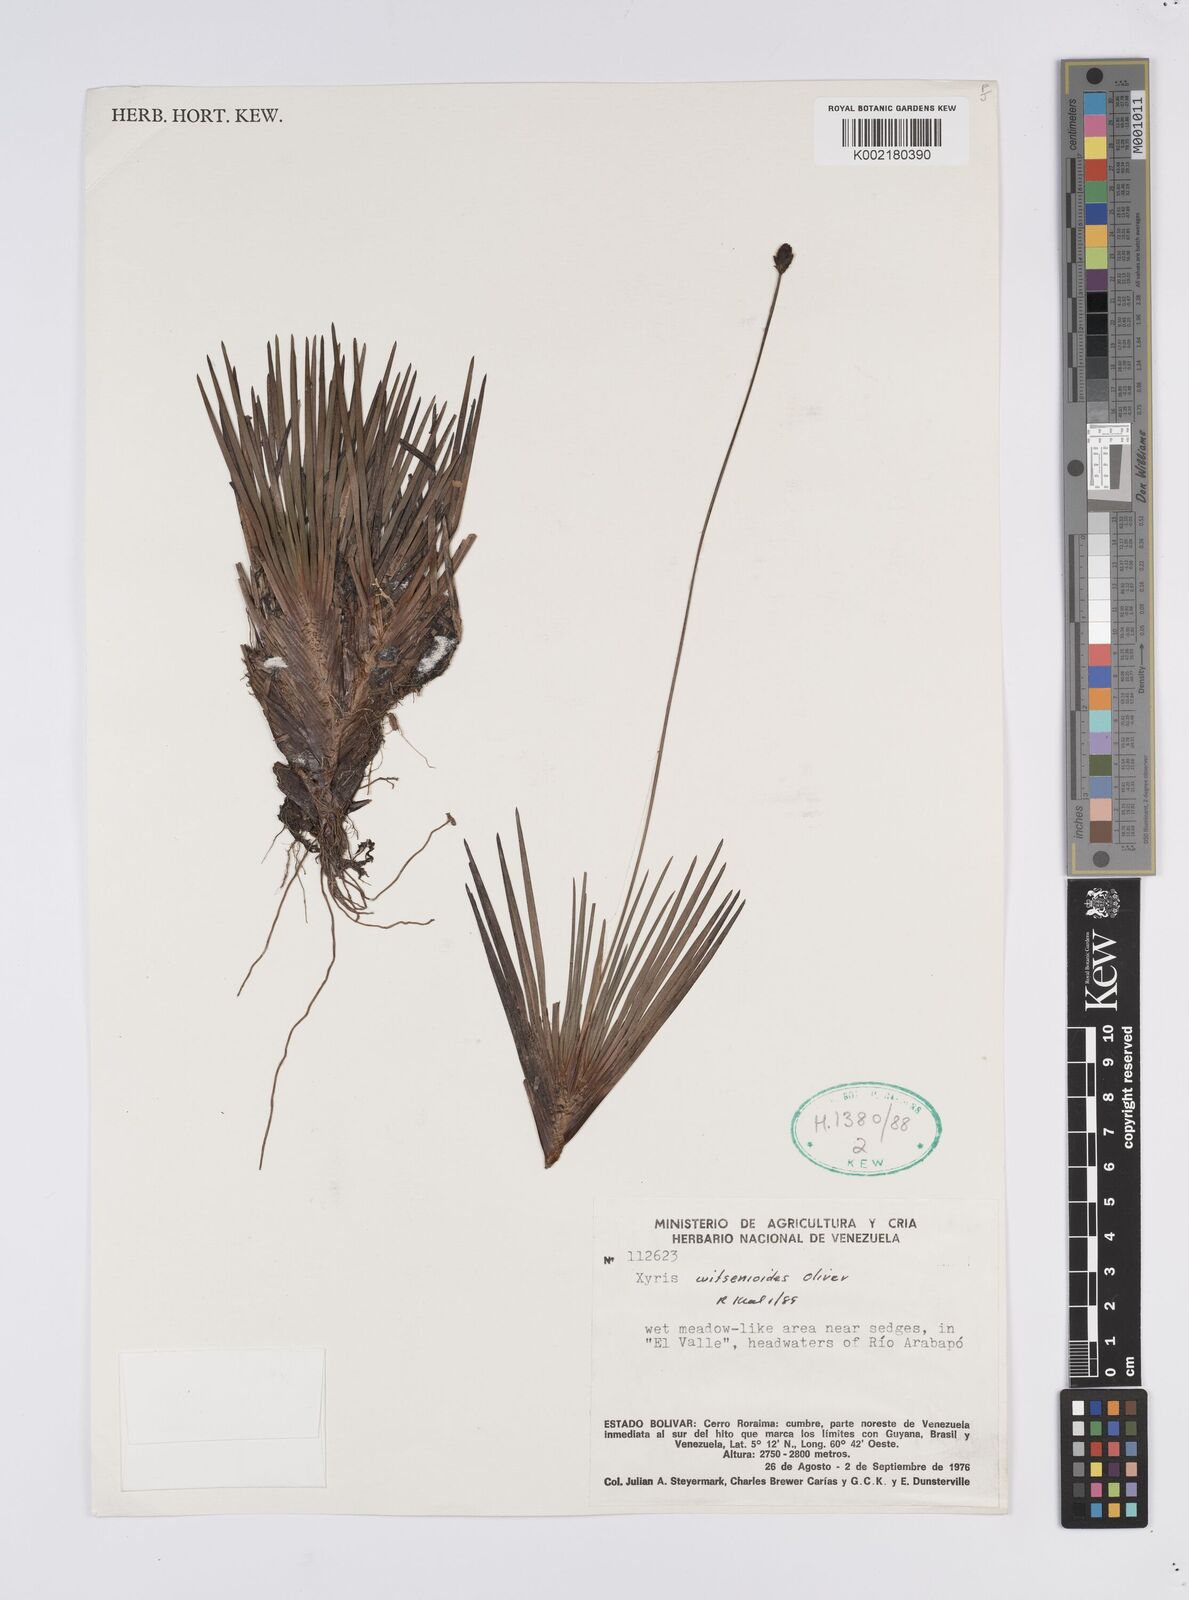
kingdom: Plantae
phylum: Tracheophyta
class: Liliopsida
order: Poales
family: Xyridaceae
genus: Xyris
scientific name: Xyris witsenioides
